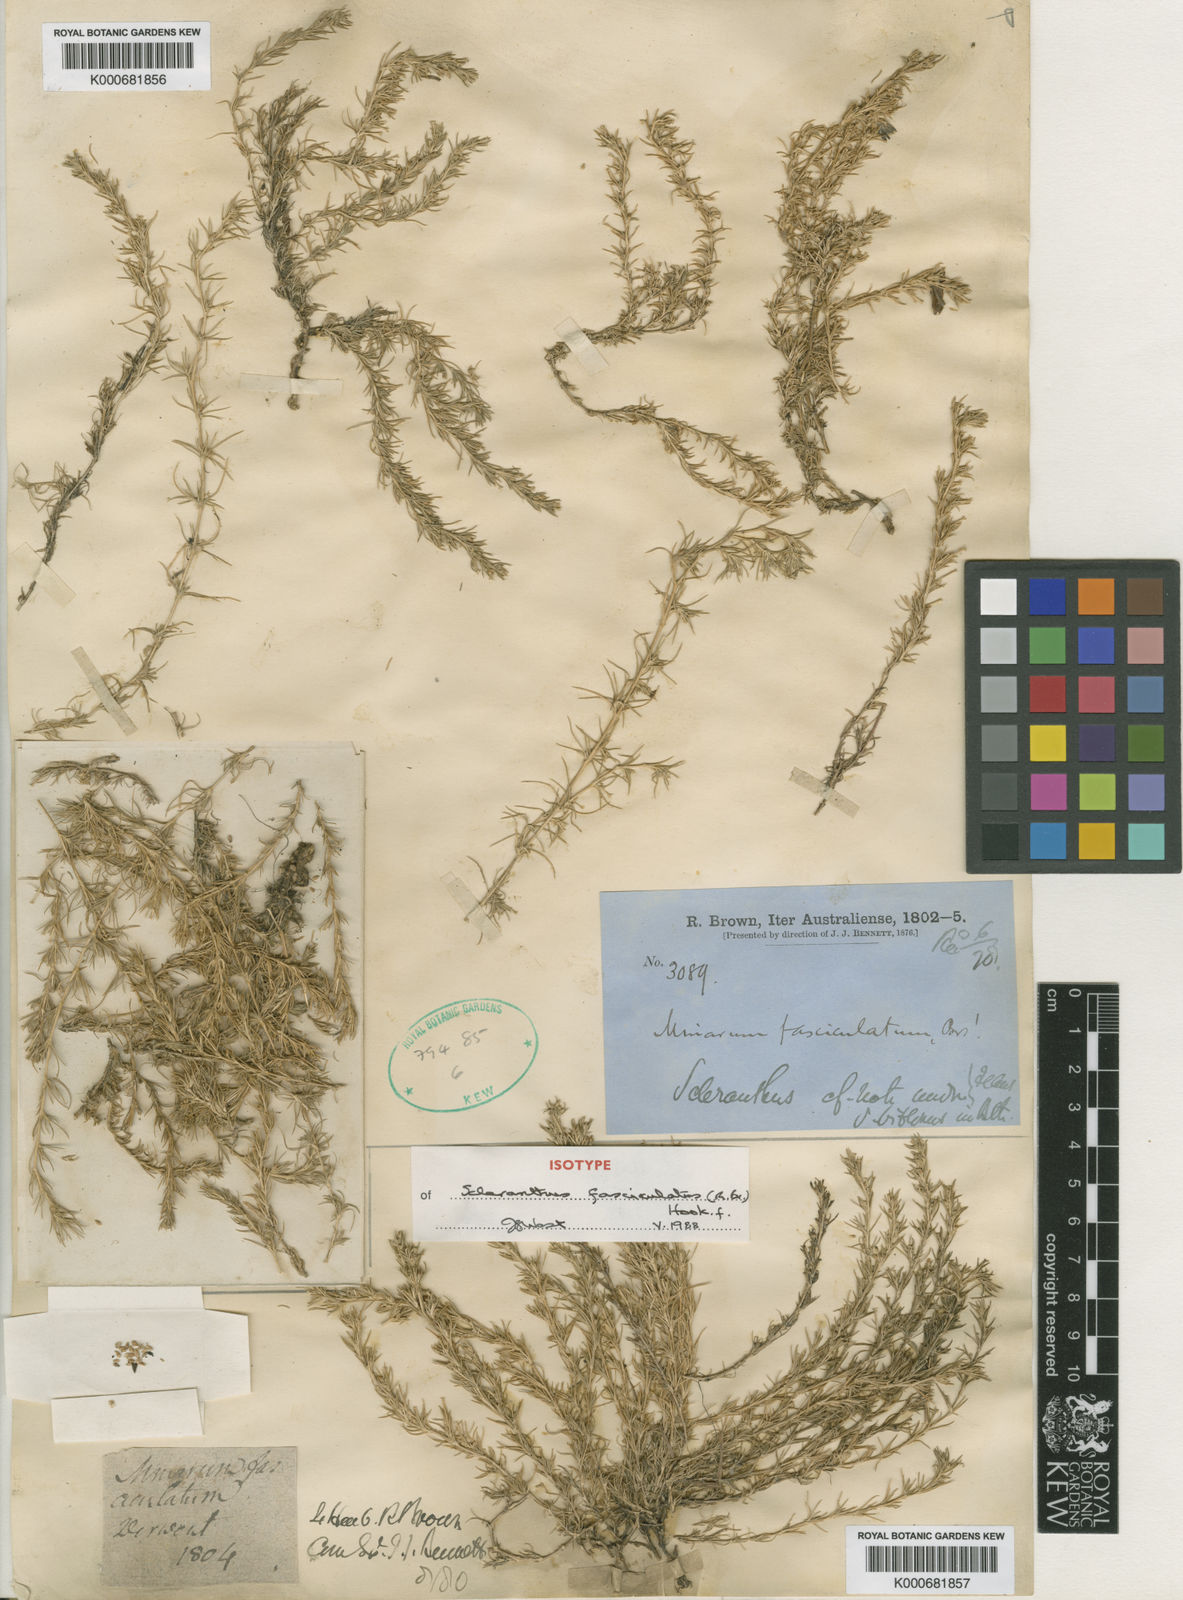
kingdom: Plantae
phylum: Tracheophyta
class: Magnoliopsida
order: Caryophyllales
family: Caryophyllaceae
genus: Scleranthus
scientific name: Scleranthus biflorus
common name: Two-flower knawel
